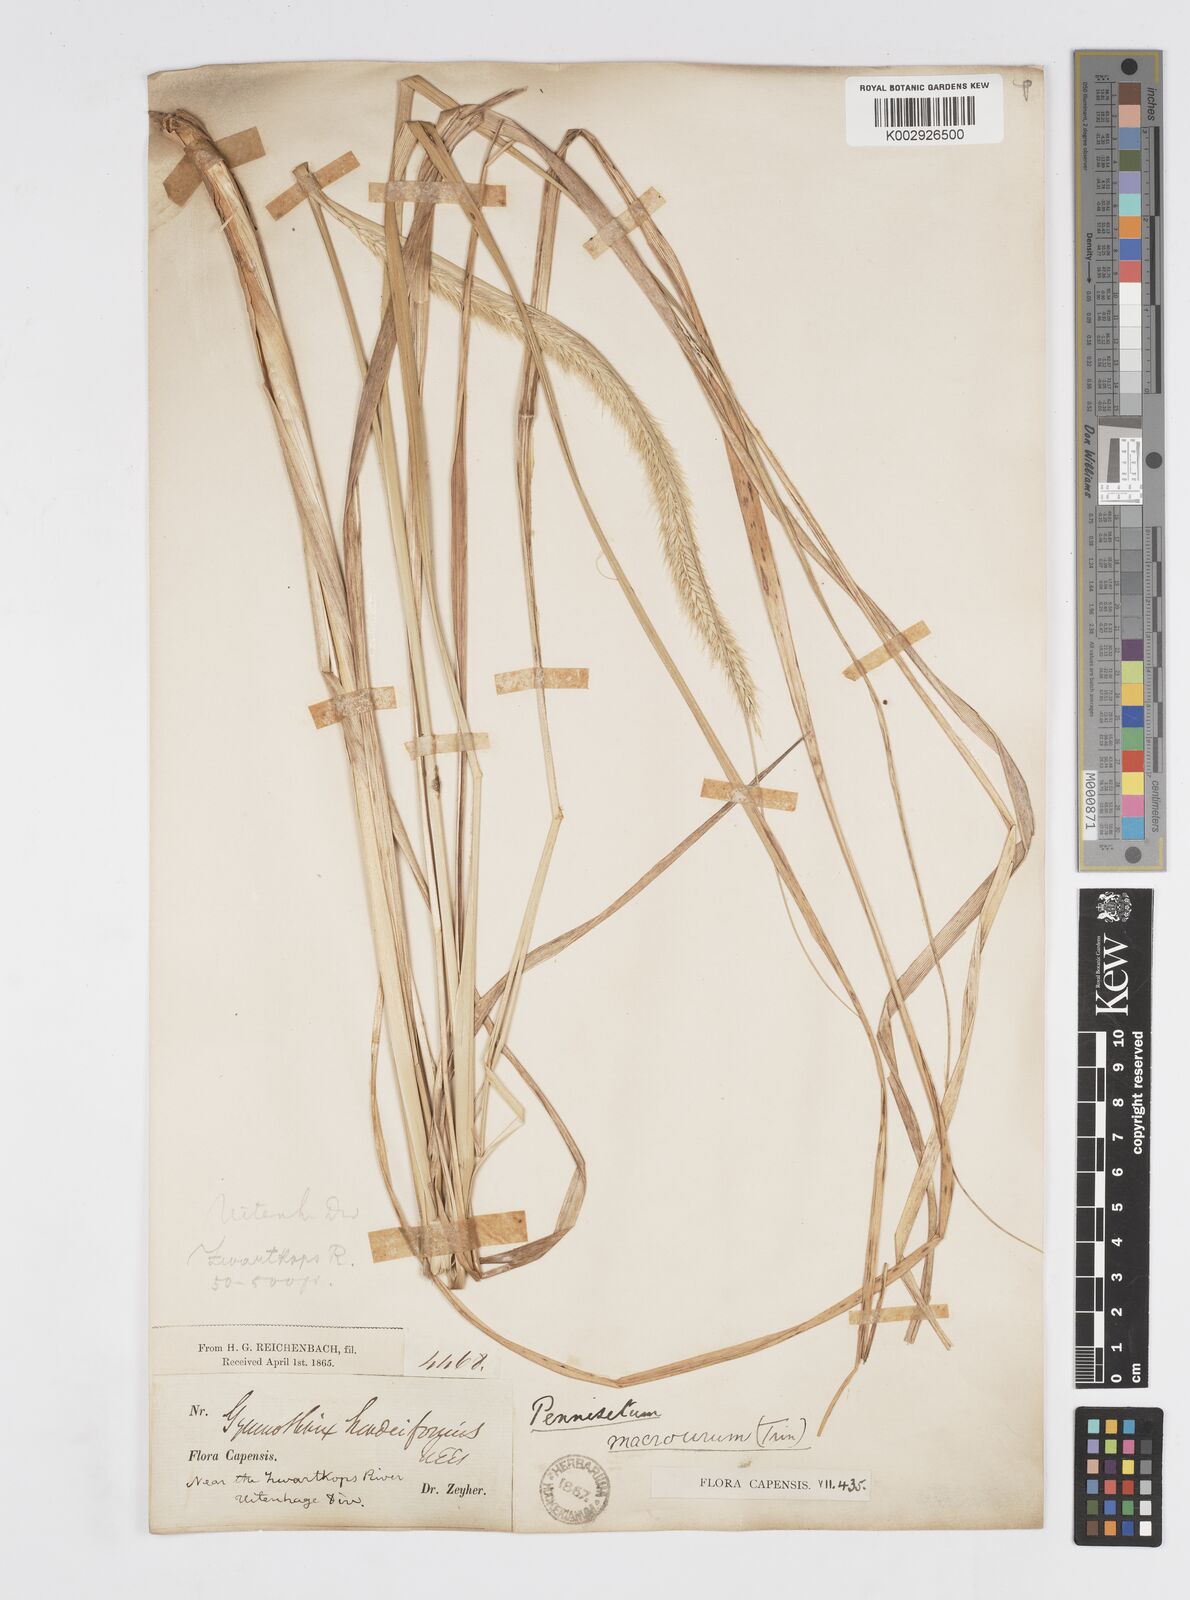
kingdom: Plantae
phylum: Tracheophyta
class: Liliopsida
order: Poales
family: Poaceae
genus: Cenchrus
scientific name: Cenchrus caudatus
